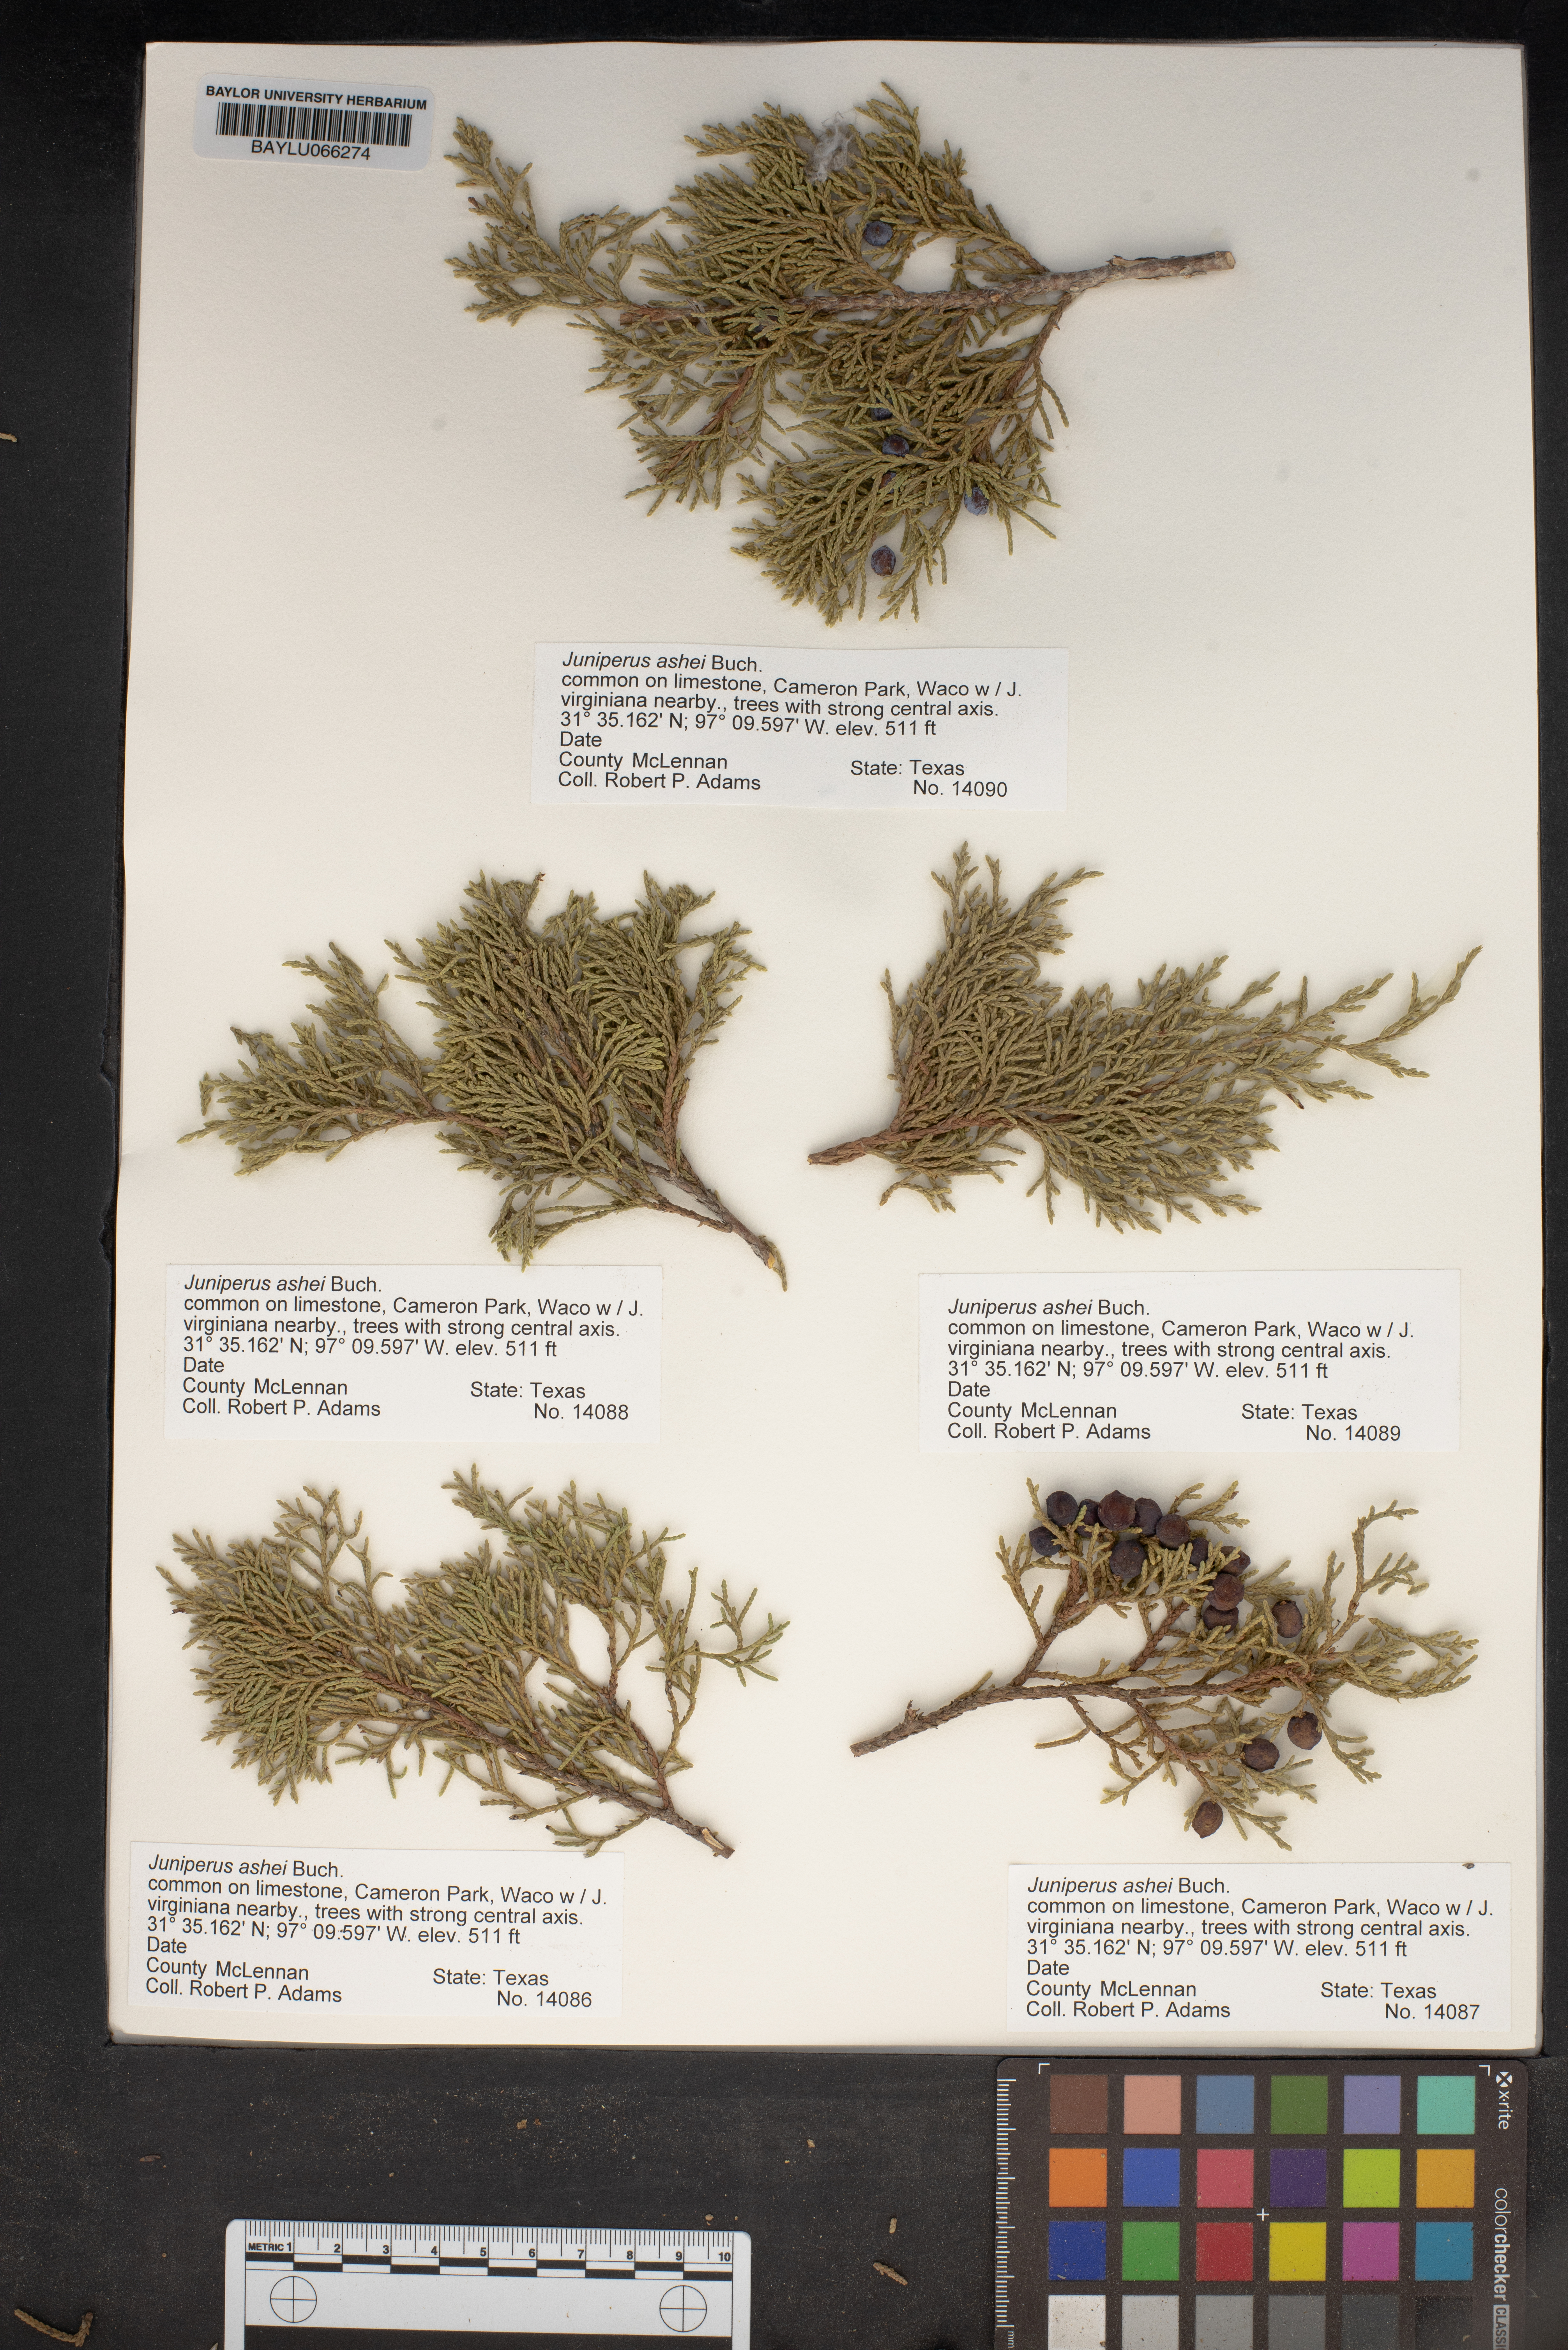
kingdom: Plantae
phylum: Tracheophyta
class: Pinopsida
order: Pinales
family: Cupressaceae
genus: Juniperus
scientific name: Juniperus ashei
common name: Mexican juniper
